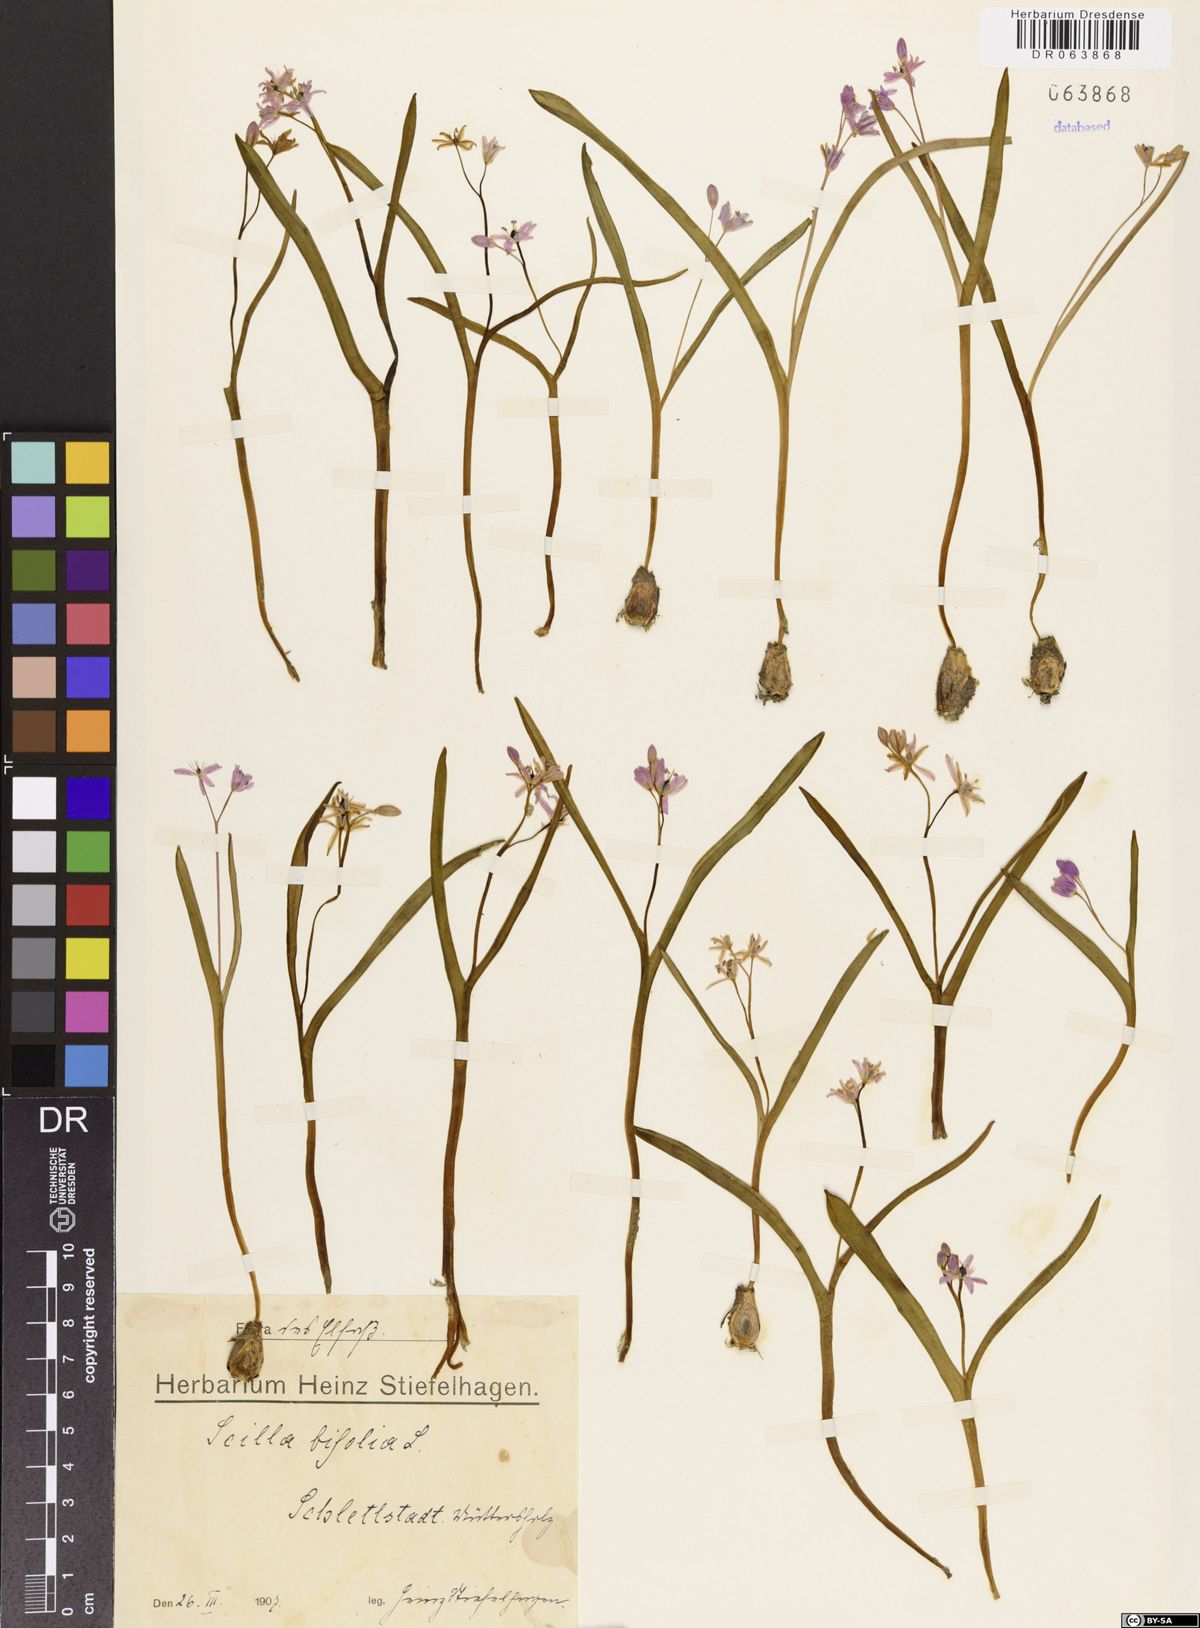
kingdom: Plantae
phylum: Tracheophyta
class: Liliopsida
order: Asparagales
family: Asparagaceae
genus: Scilla
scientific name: Scilla bifolia
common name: Alpine squill
